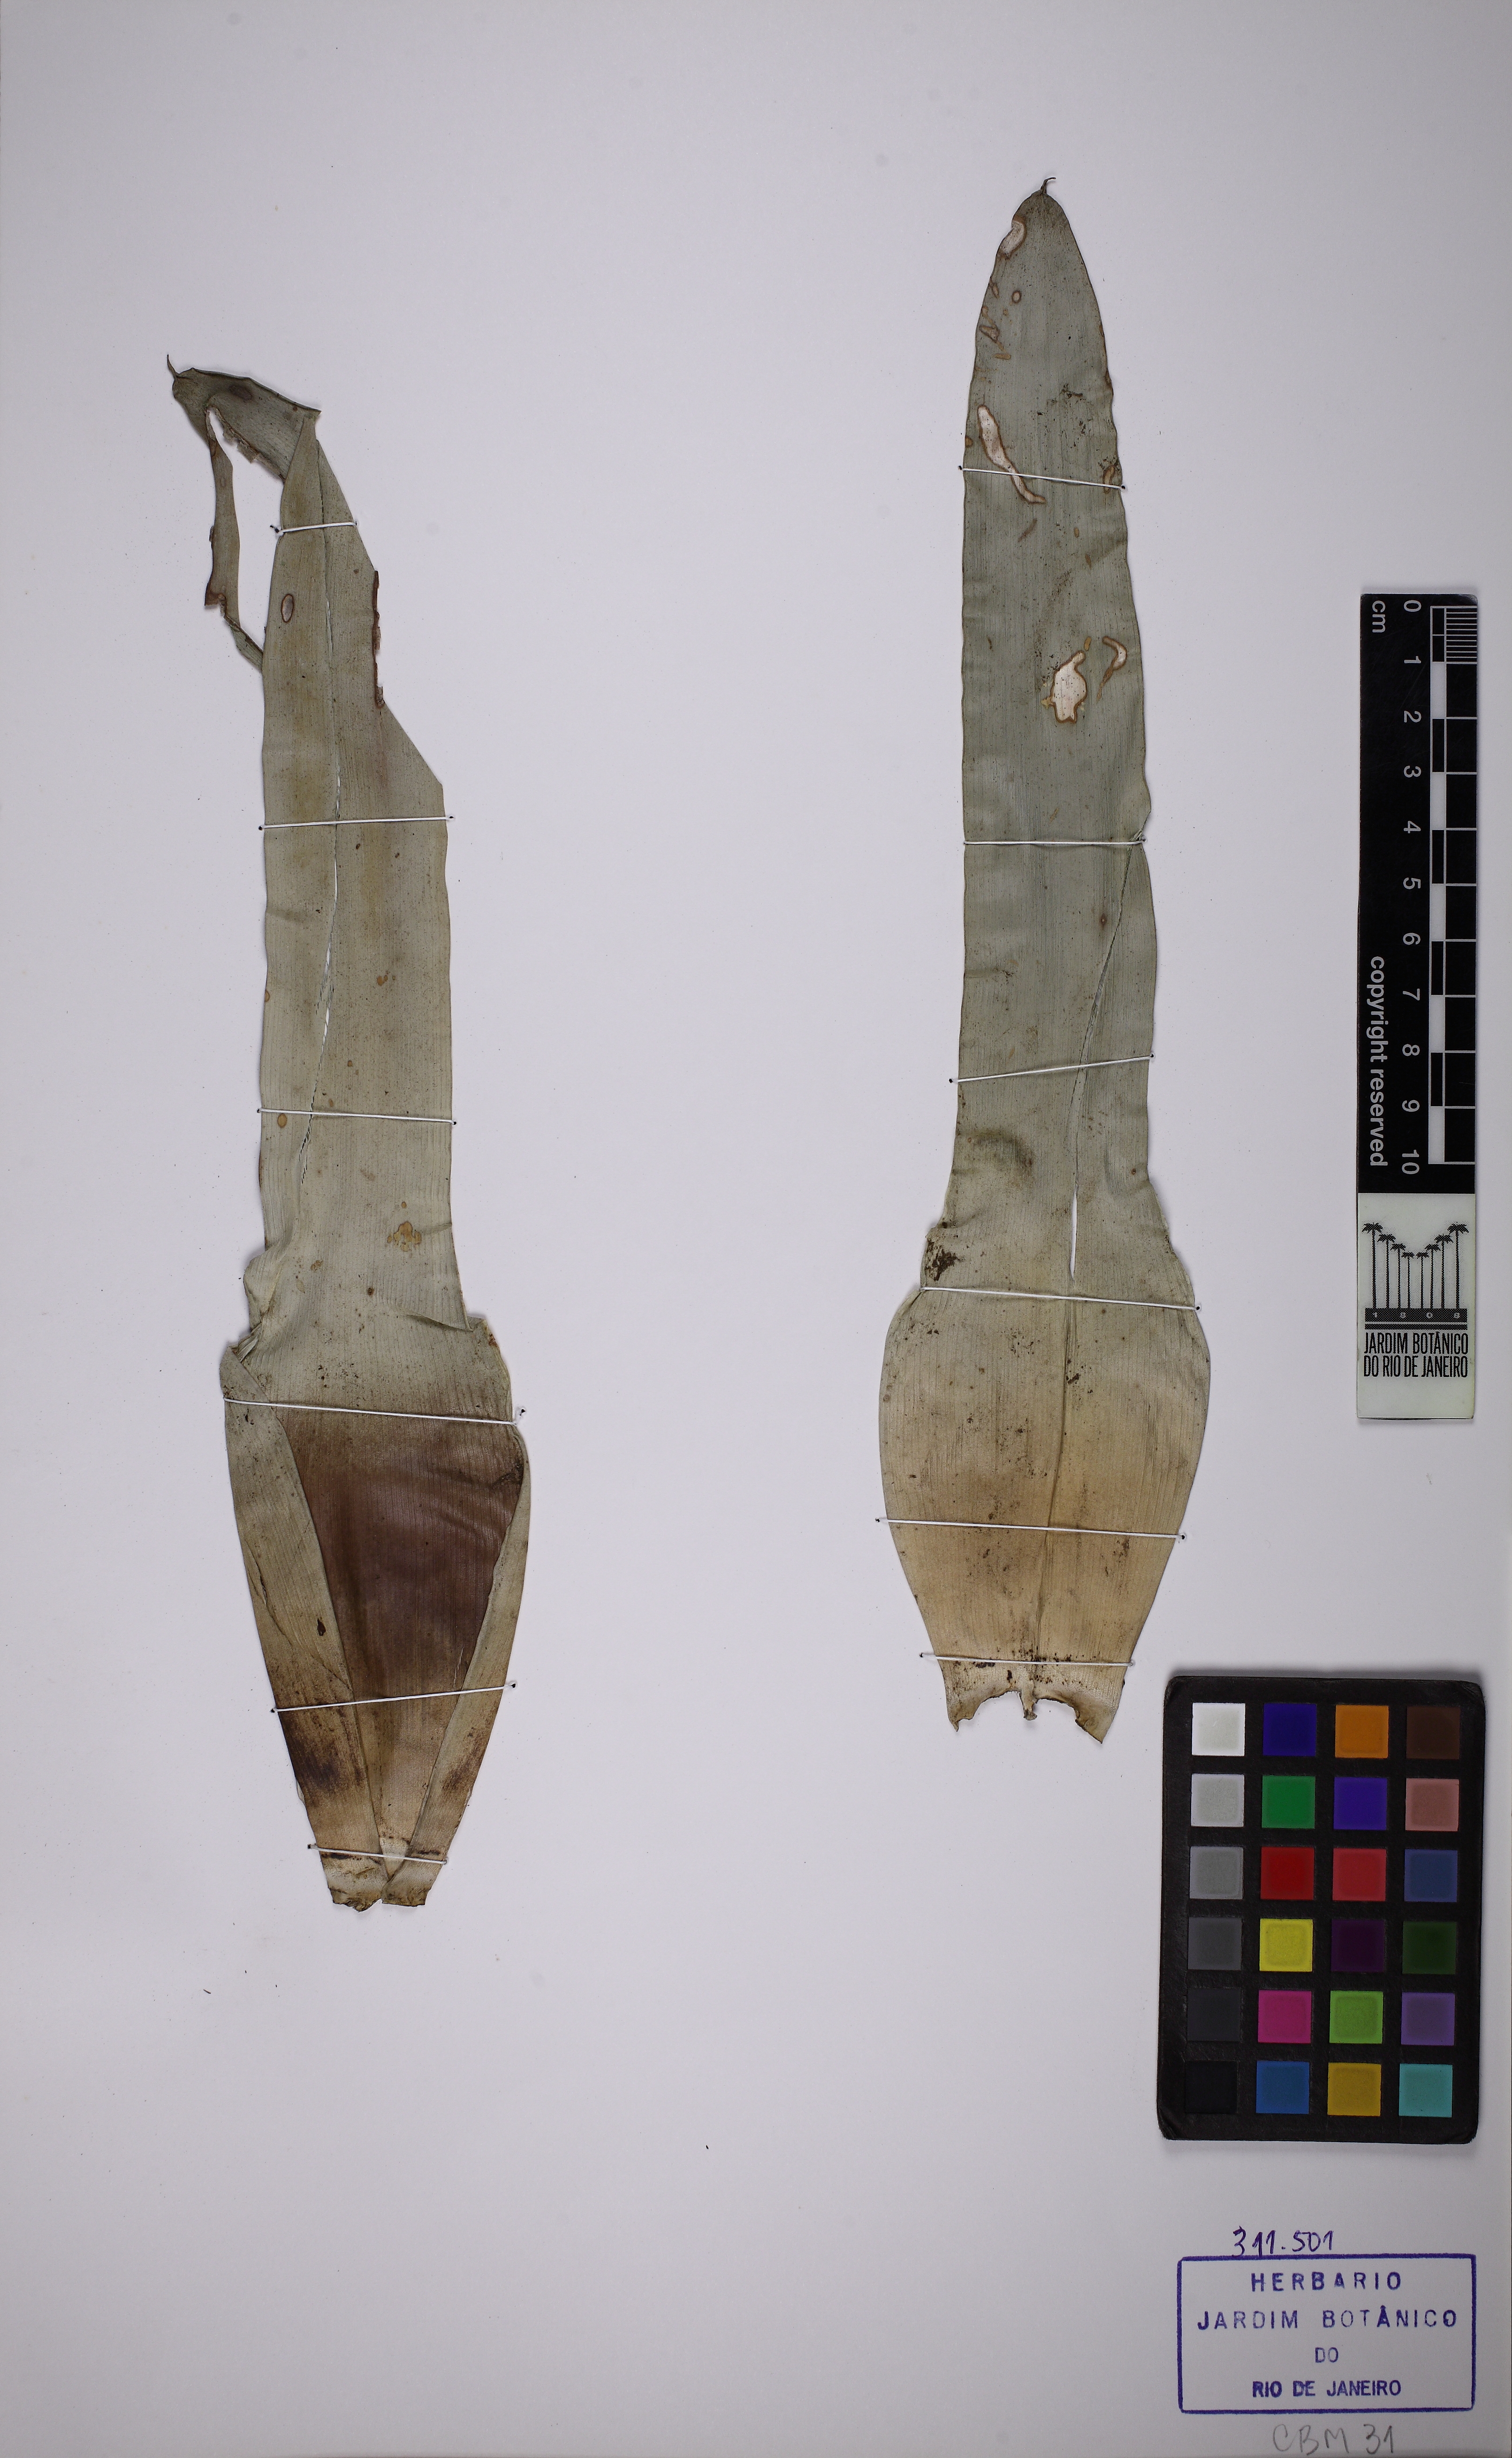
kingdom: Plantae
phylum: Tracheophyta
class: Liliopsida
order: Poales
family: Bromeliaceae
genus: Vriesea
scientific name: Vriesea procera
